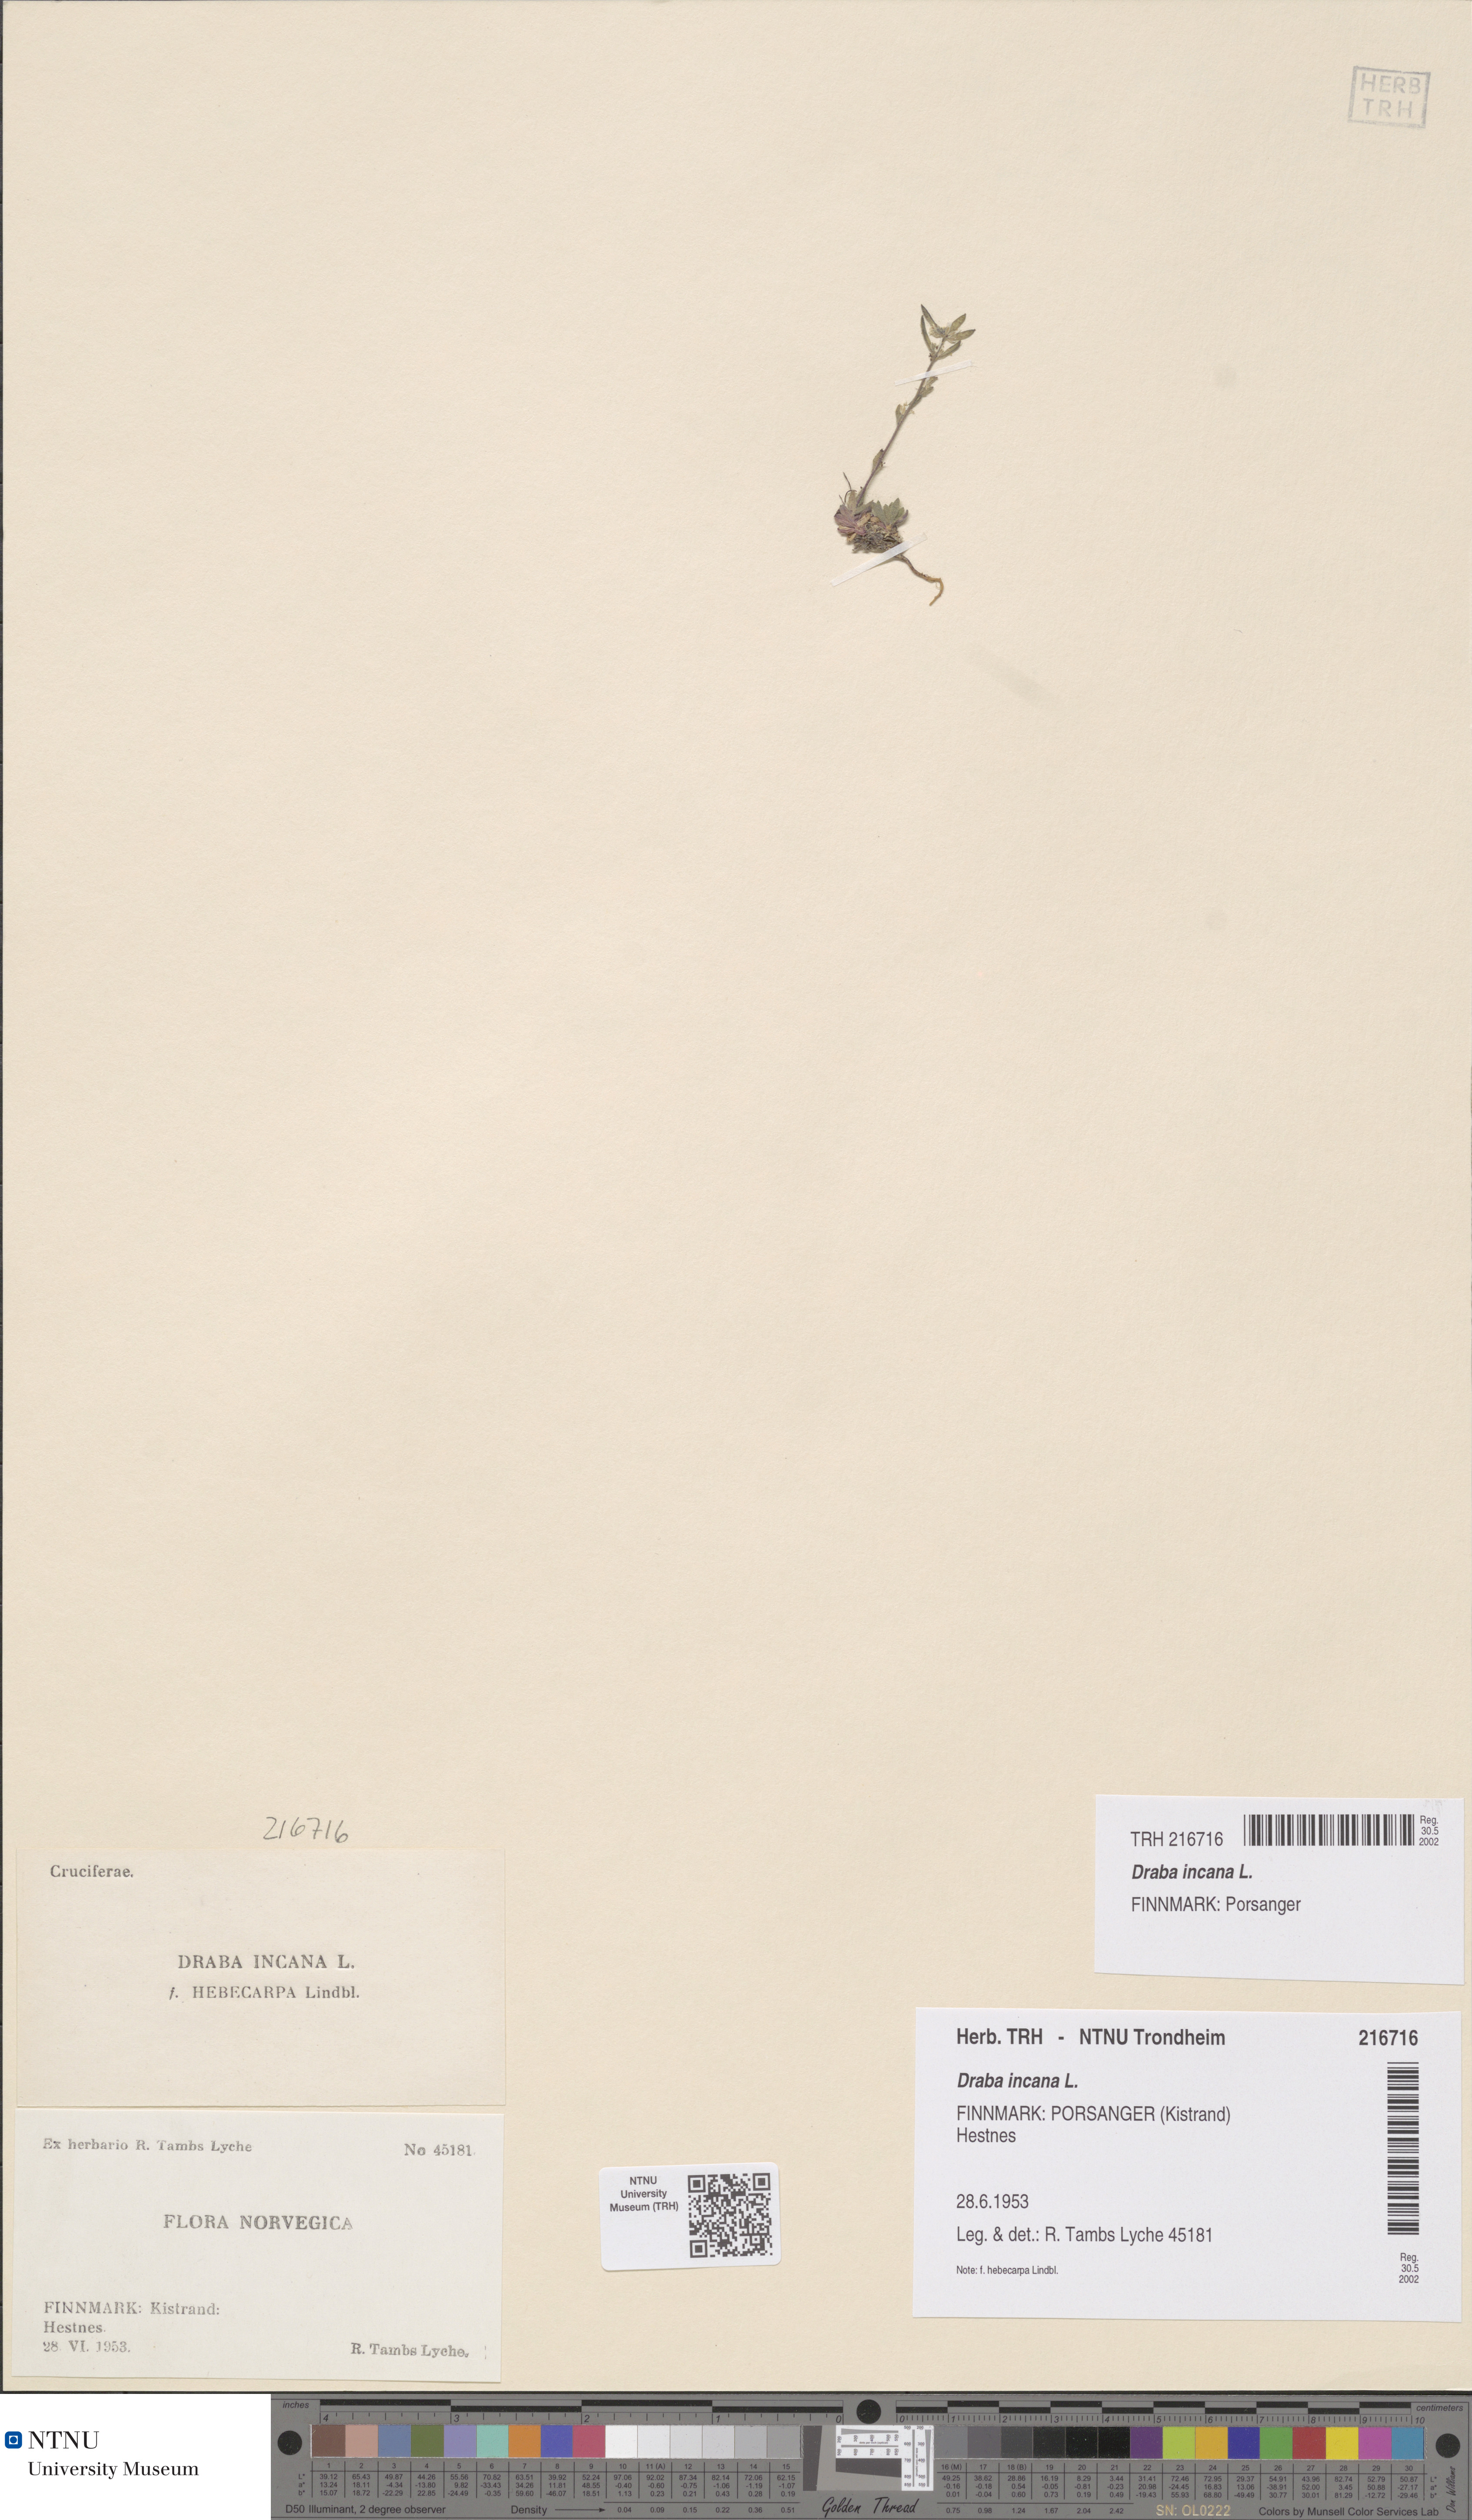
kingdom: Plantae
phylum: Tracheophyta
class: Magnoliopsida
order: Brassicales
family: Brassicaceae
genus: Draba
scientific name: Draba incana
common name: Hoary whitlow-grass
